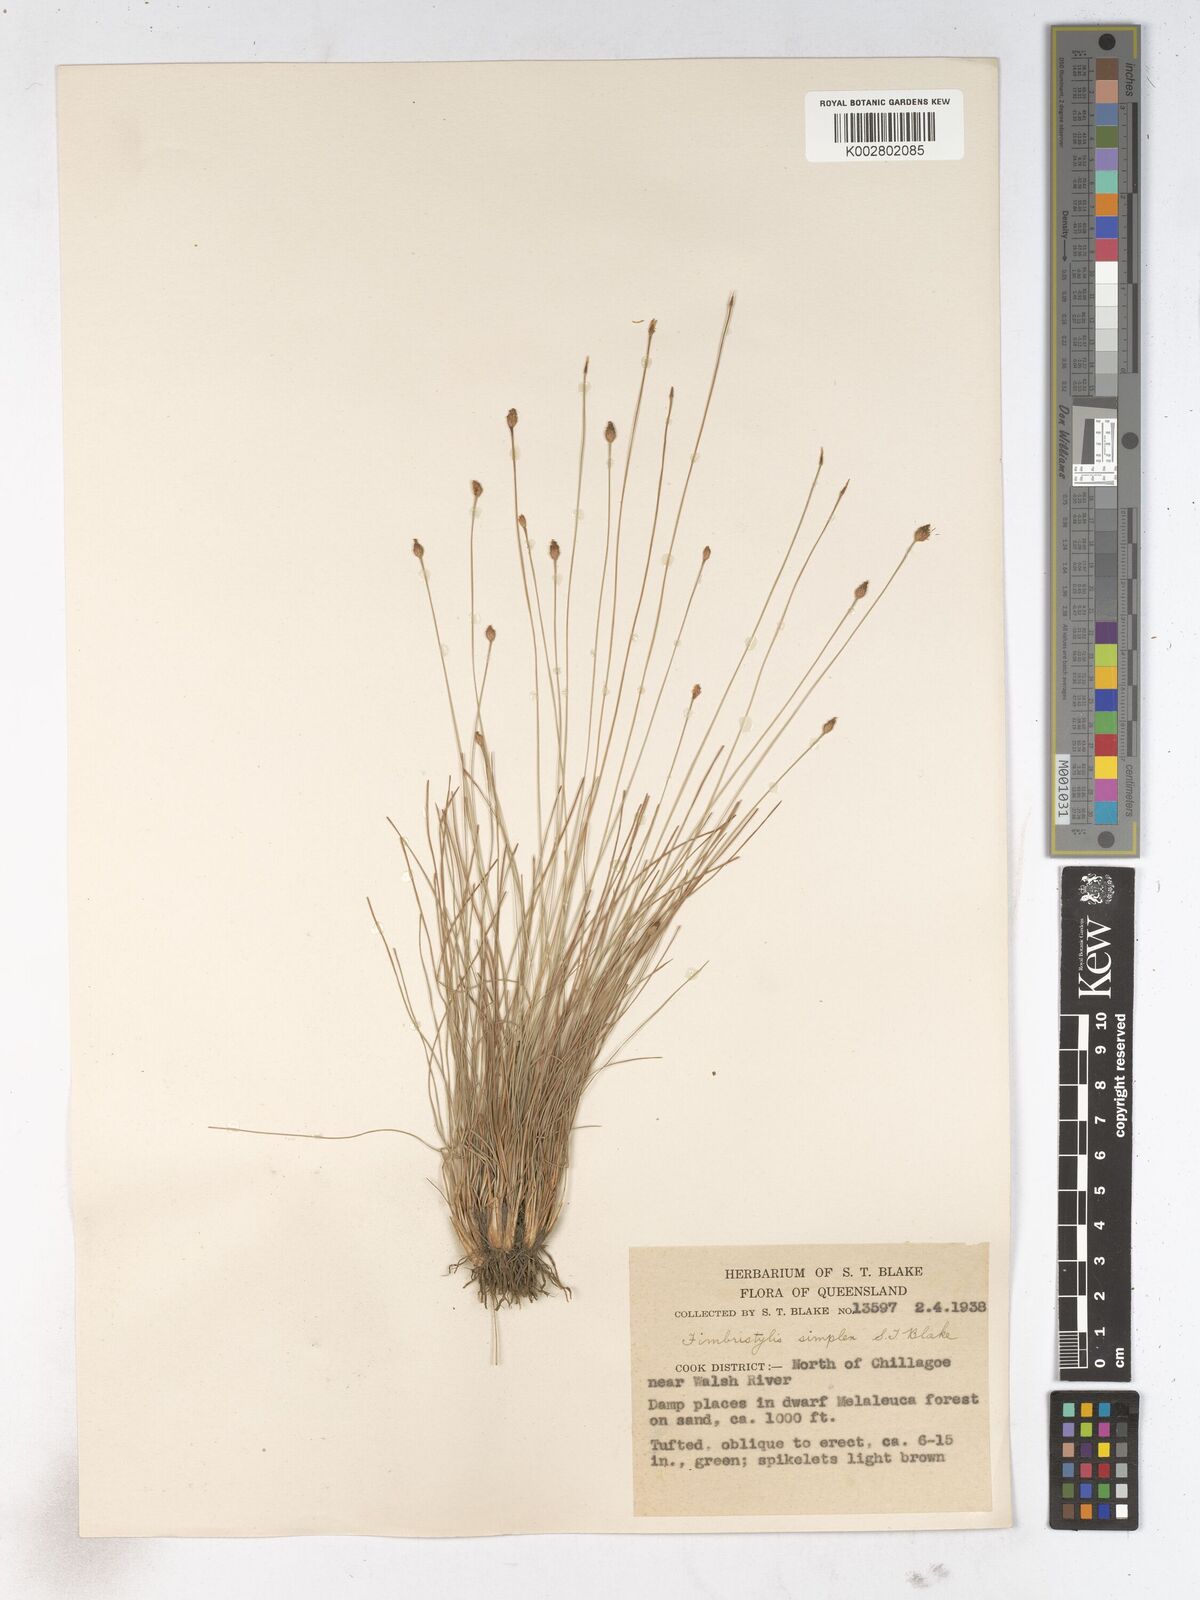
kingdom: Plantae
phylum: Tracheophyta
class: Liliopsida
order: Poales
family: Cyperaceae
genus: Fimbristylis
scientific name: Fimbristylis simplex
